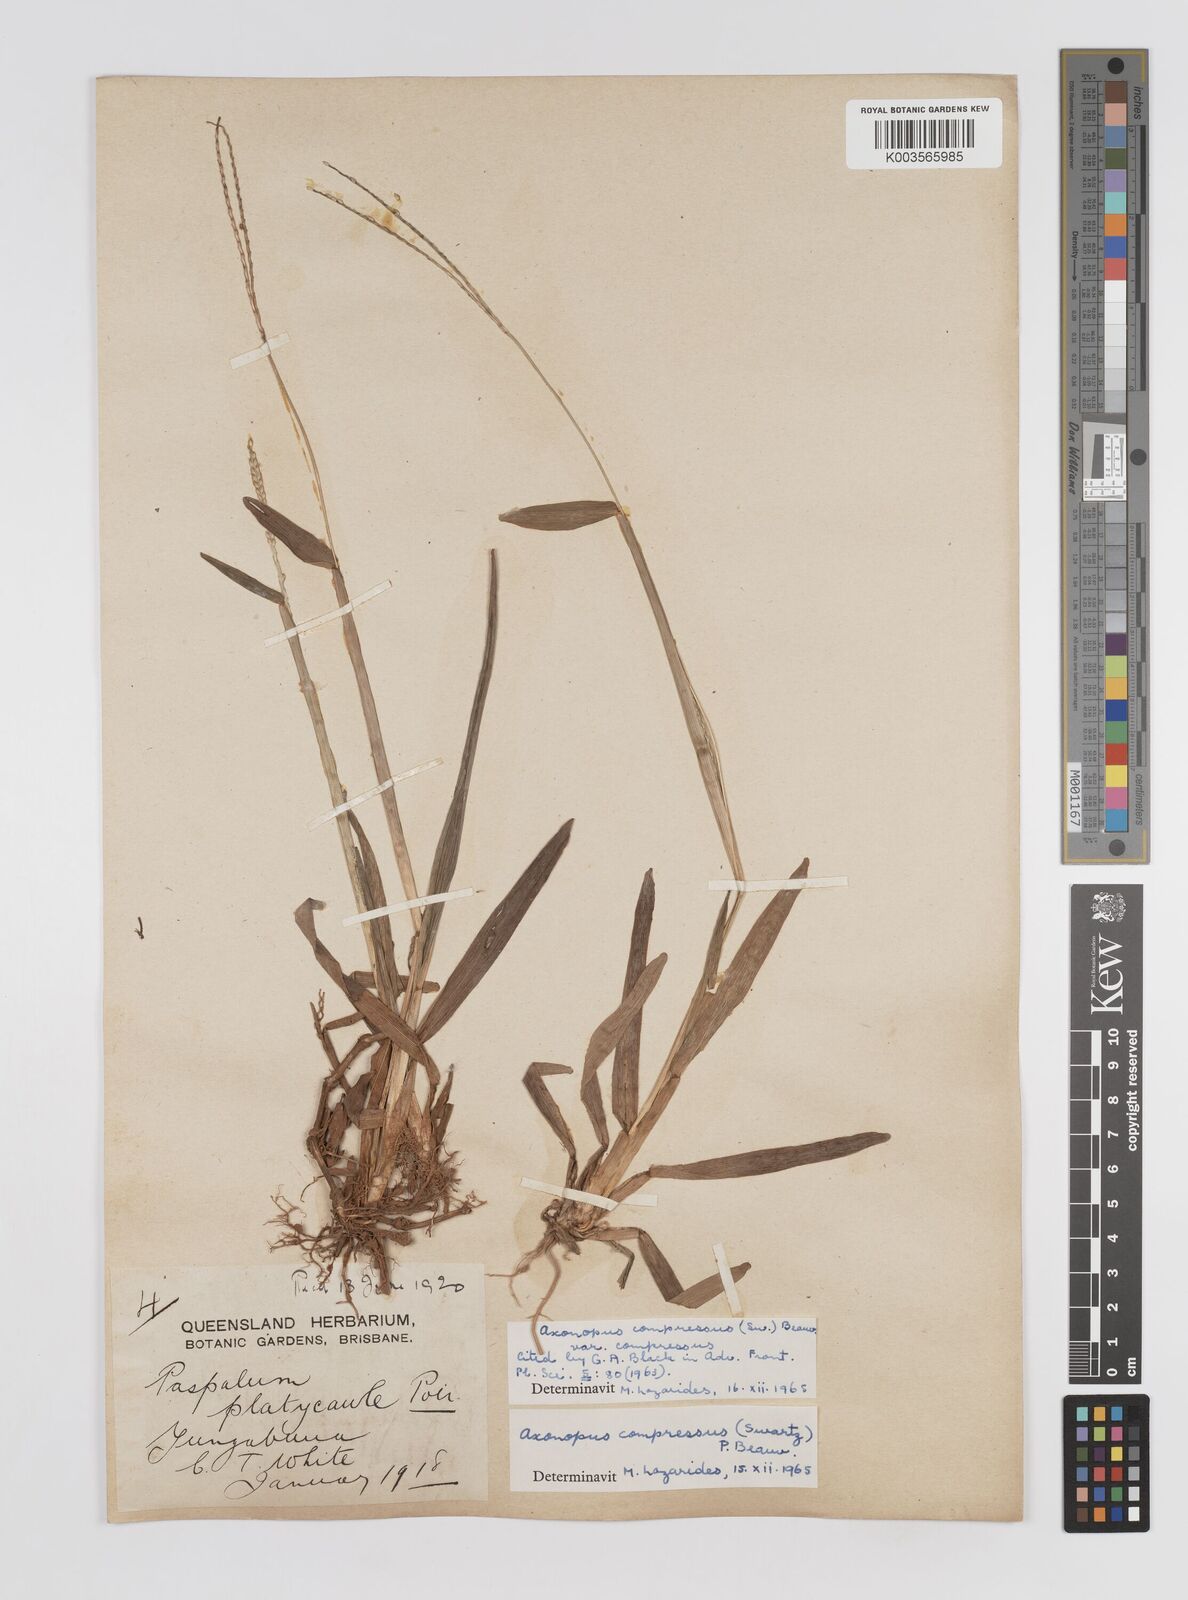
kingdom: Plantae
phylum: Tracheophyta
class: Liliopsida
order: Poales
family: Poaceae
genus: Axonopus
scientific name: Axonopus compressus
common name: American carpet grass
